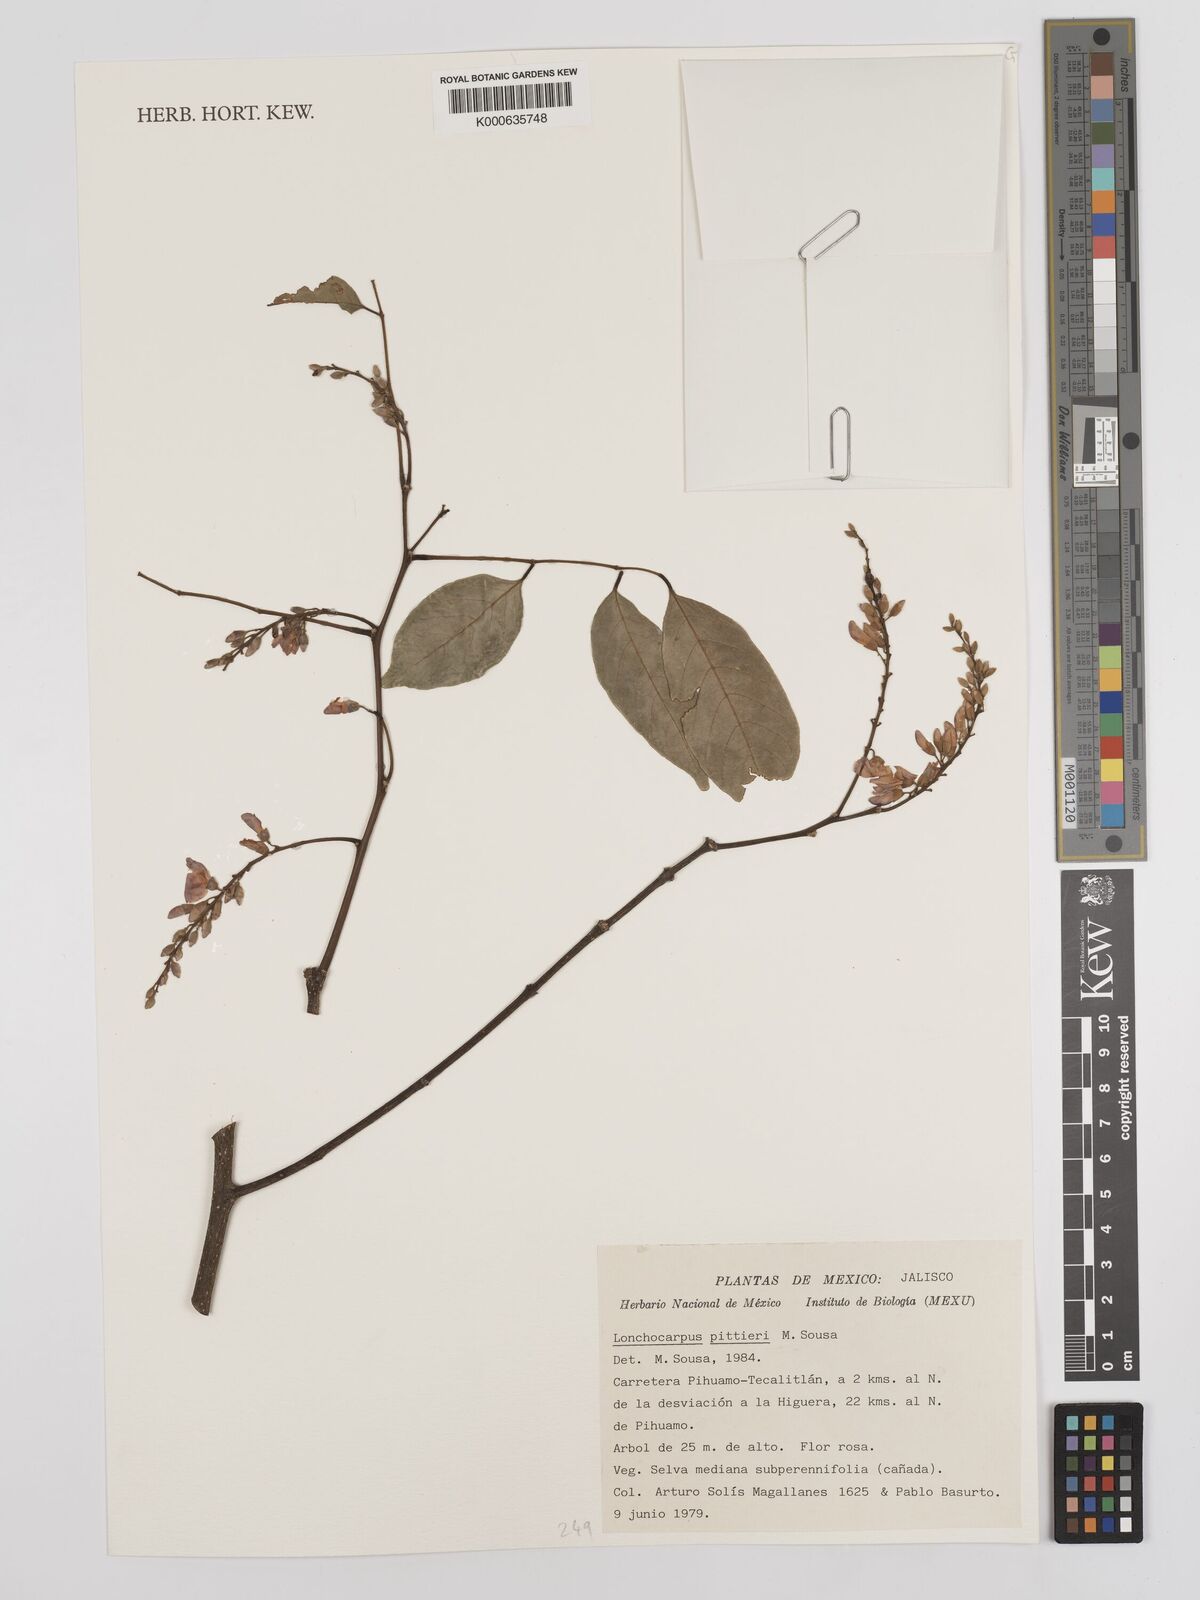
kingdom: Plantae
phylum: Tracheophyta
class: Magnoliopsida
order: Fabales
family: Fabaceae
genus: Lonchocarpus
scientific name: Lonchocarpus pittieri
